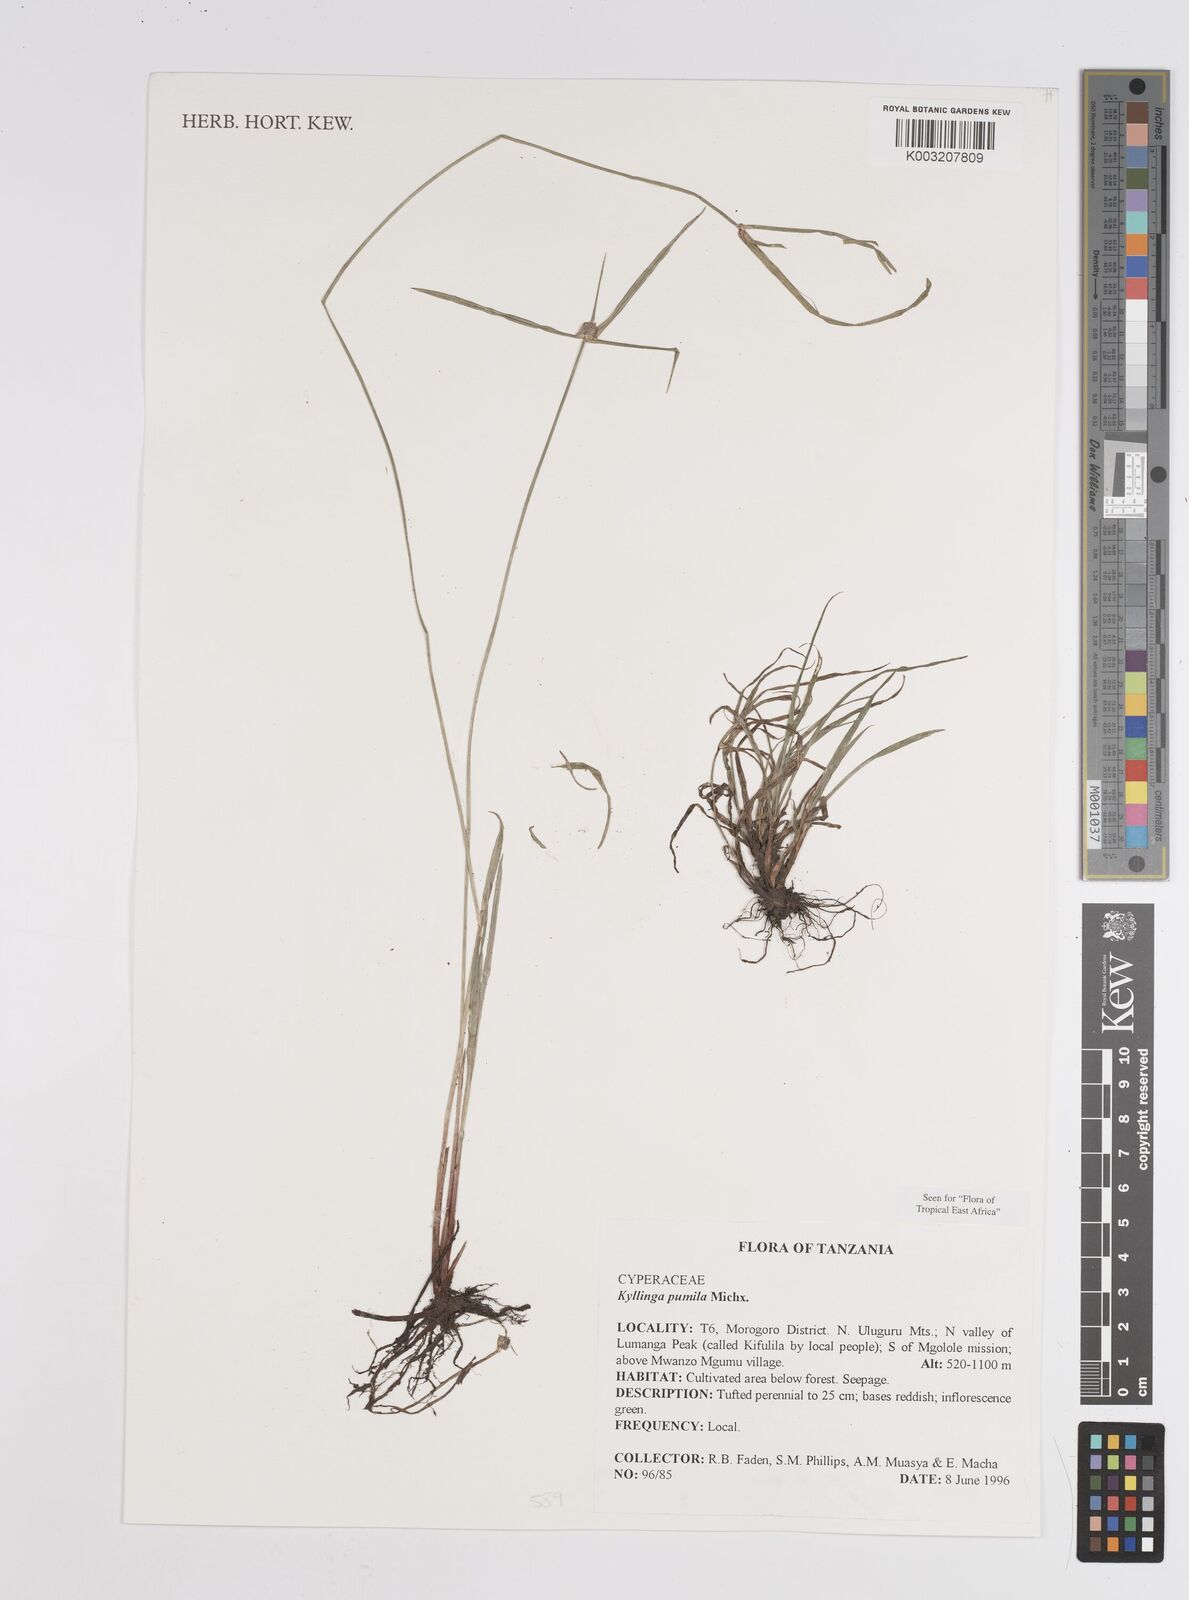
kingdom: Plantae
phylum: Tracheophyta
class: Liliopsida
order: Poales
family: Cyperaceae
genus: Cyperus
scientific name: Cyperus hortensis
